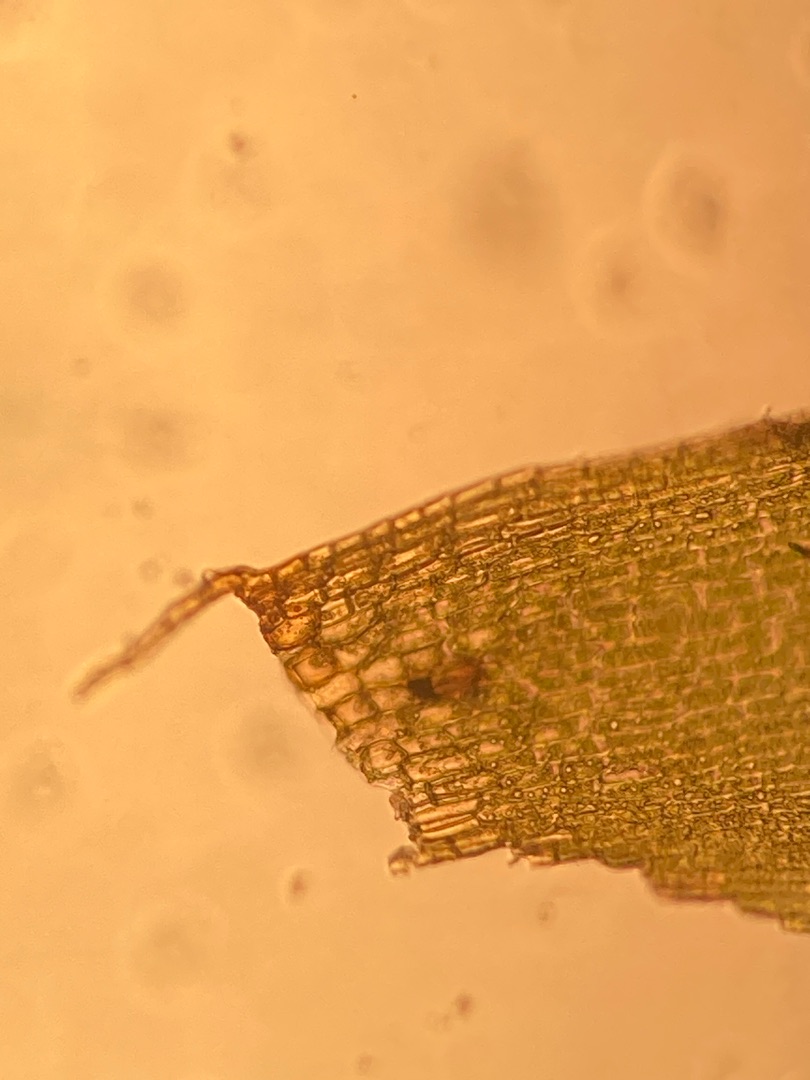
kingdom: Plantae
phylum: Bryophyta
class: Bryopsida
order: Dicranales
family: Dicranaceae
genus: Dicranum
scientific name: Dicranum scoparium
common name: Almindelig kløvtand
